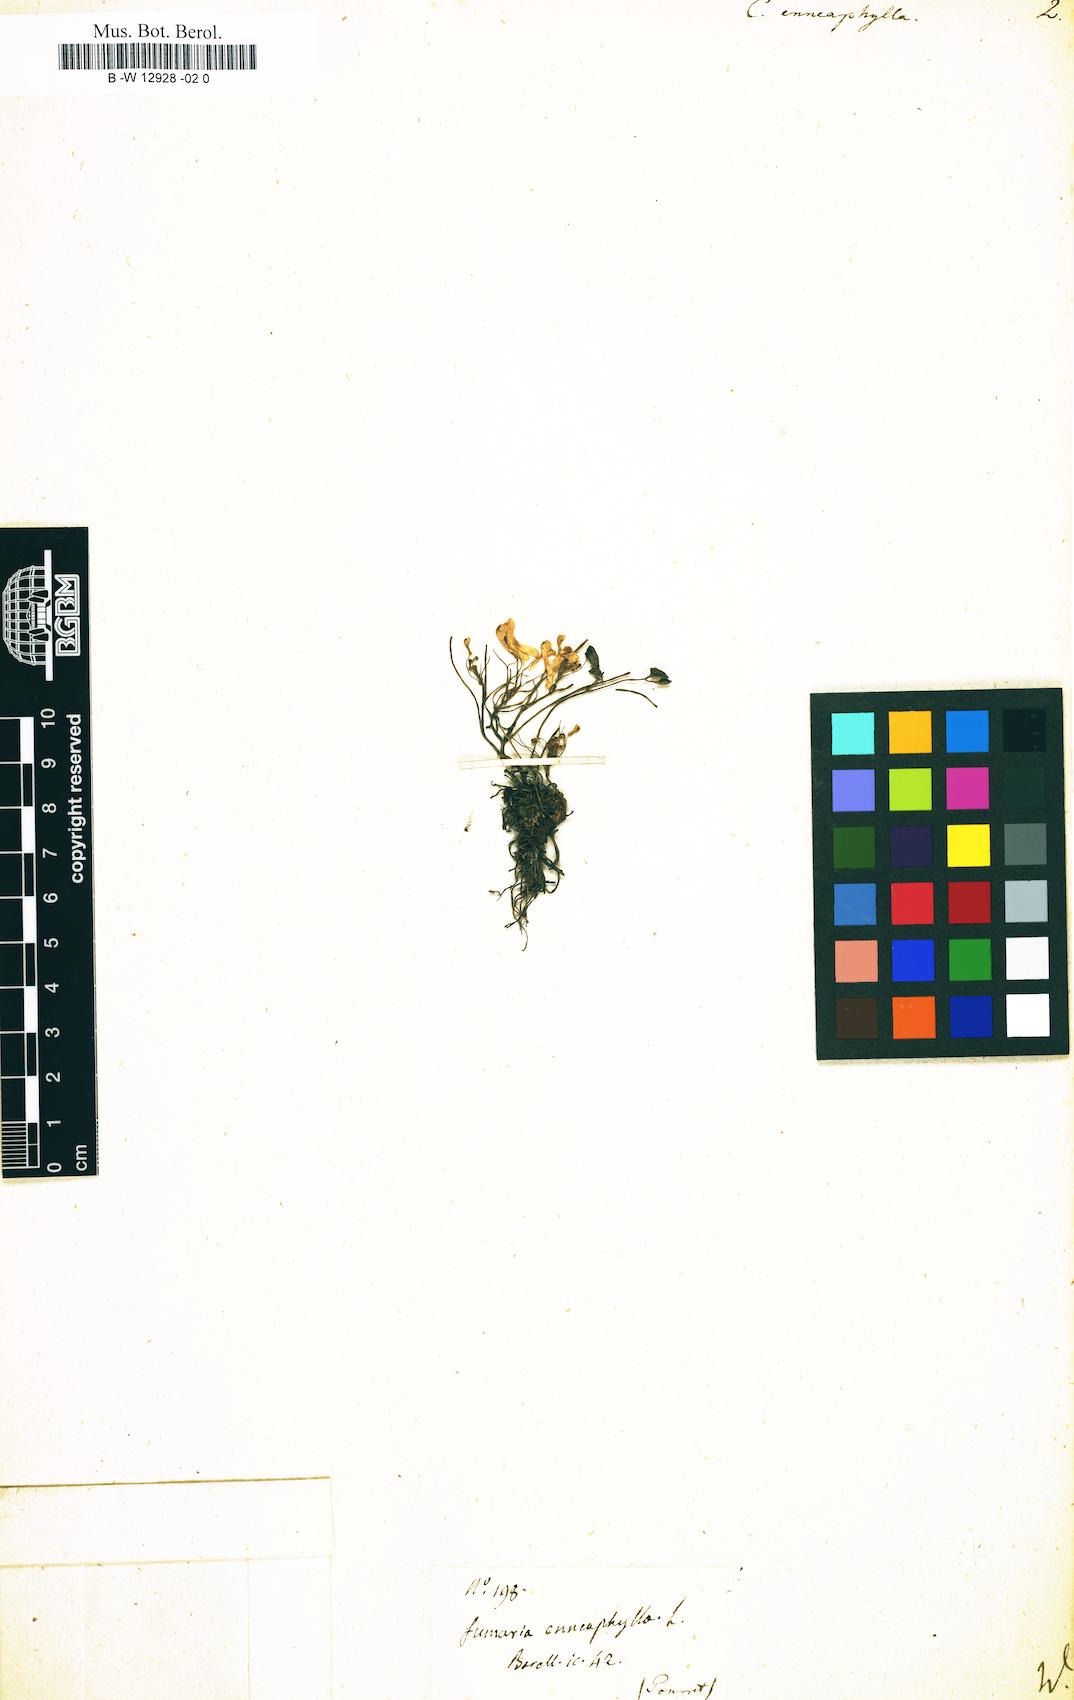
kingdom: Plantae
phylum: Tracheophyta
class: Magnoliopsida
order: Ranunculales
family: Papaveraceae
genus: Sarcocapnos
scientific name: Sarcocapnos enneaphylla
